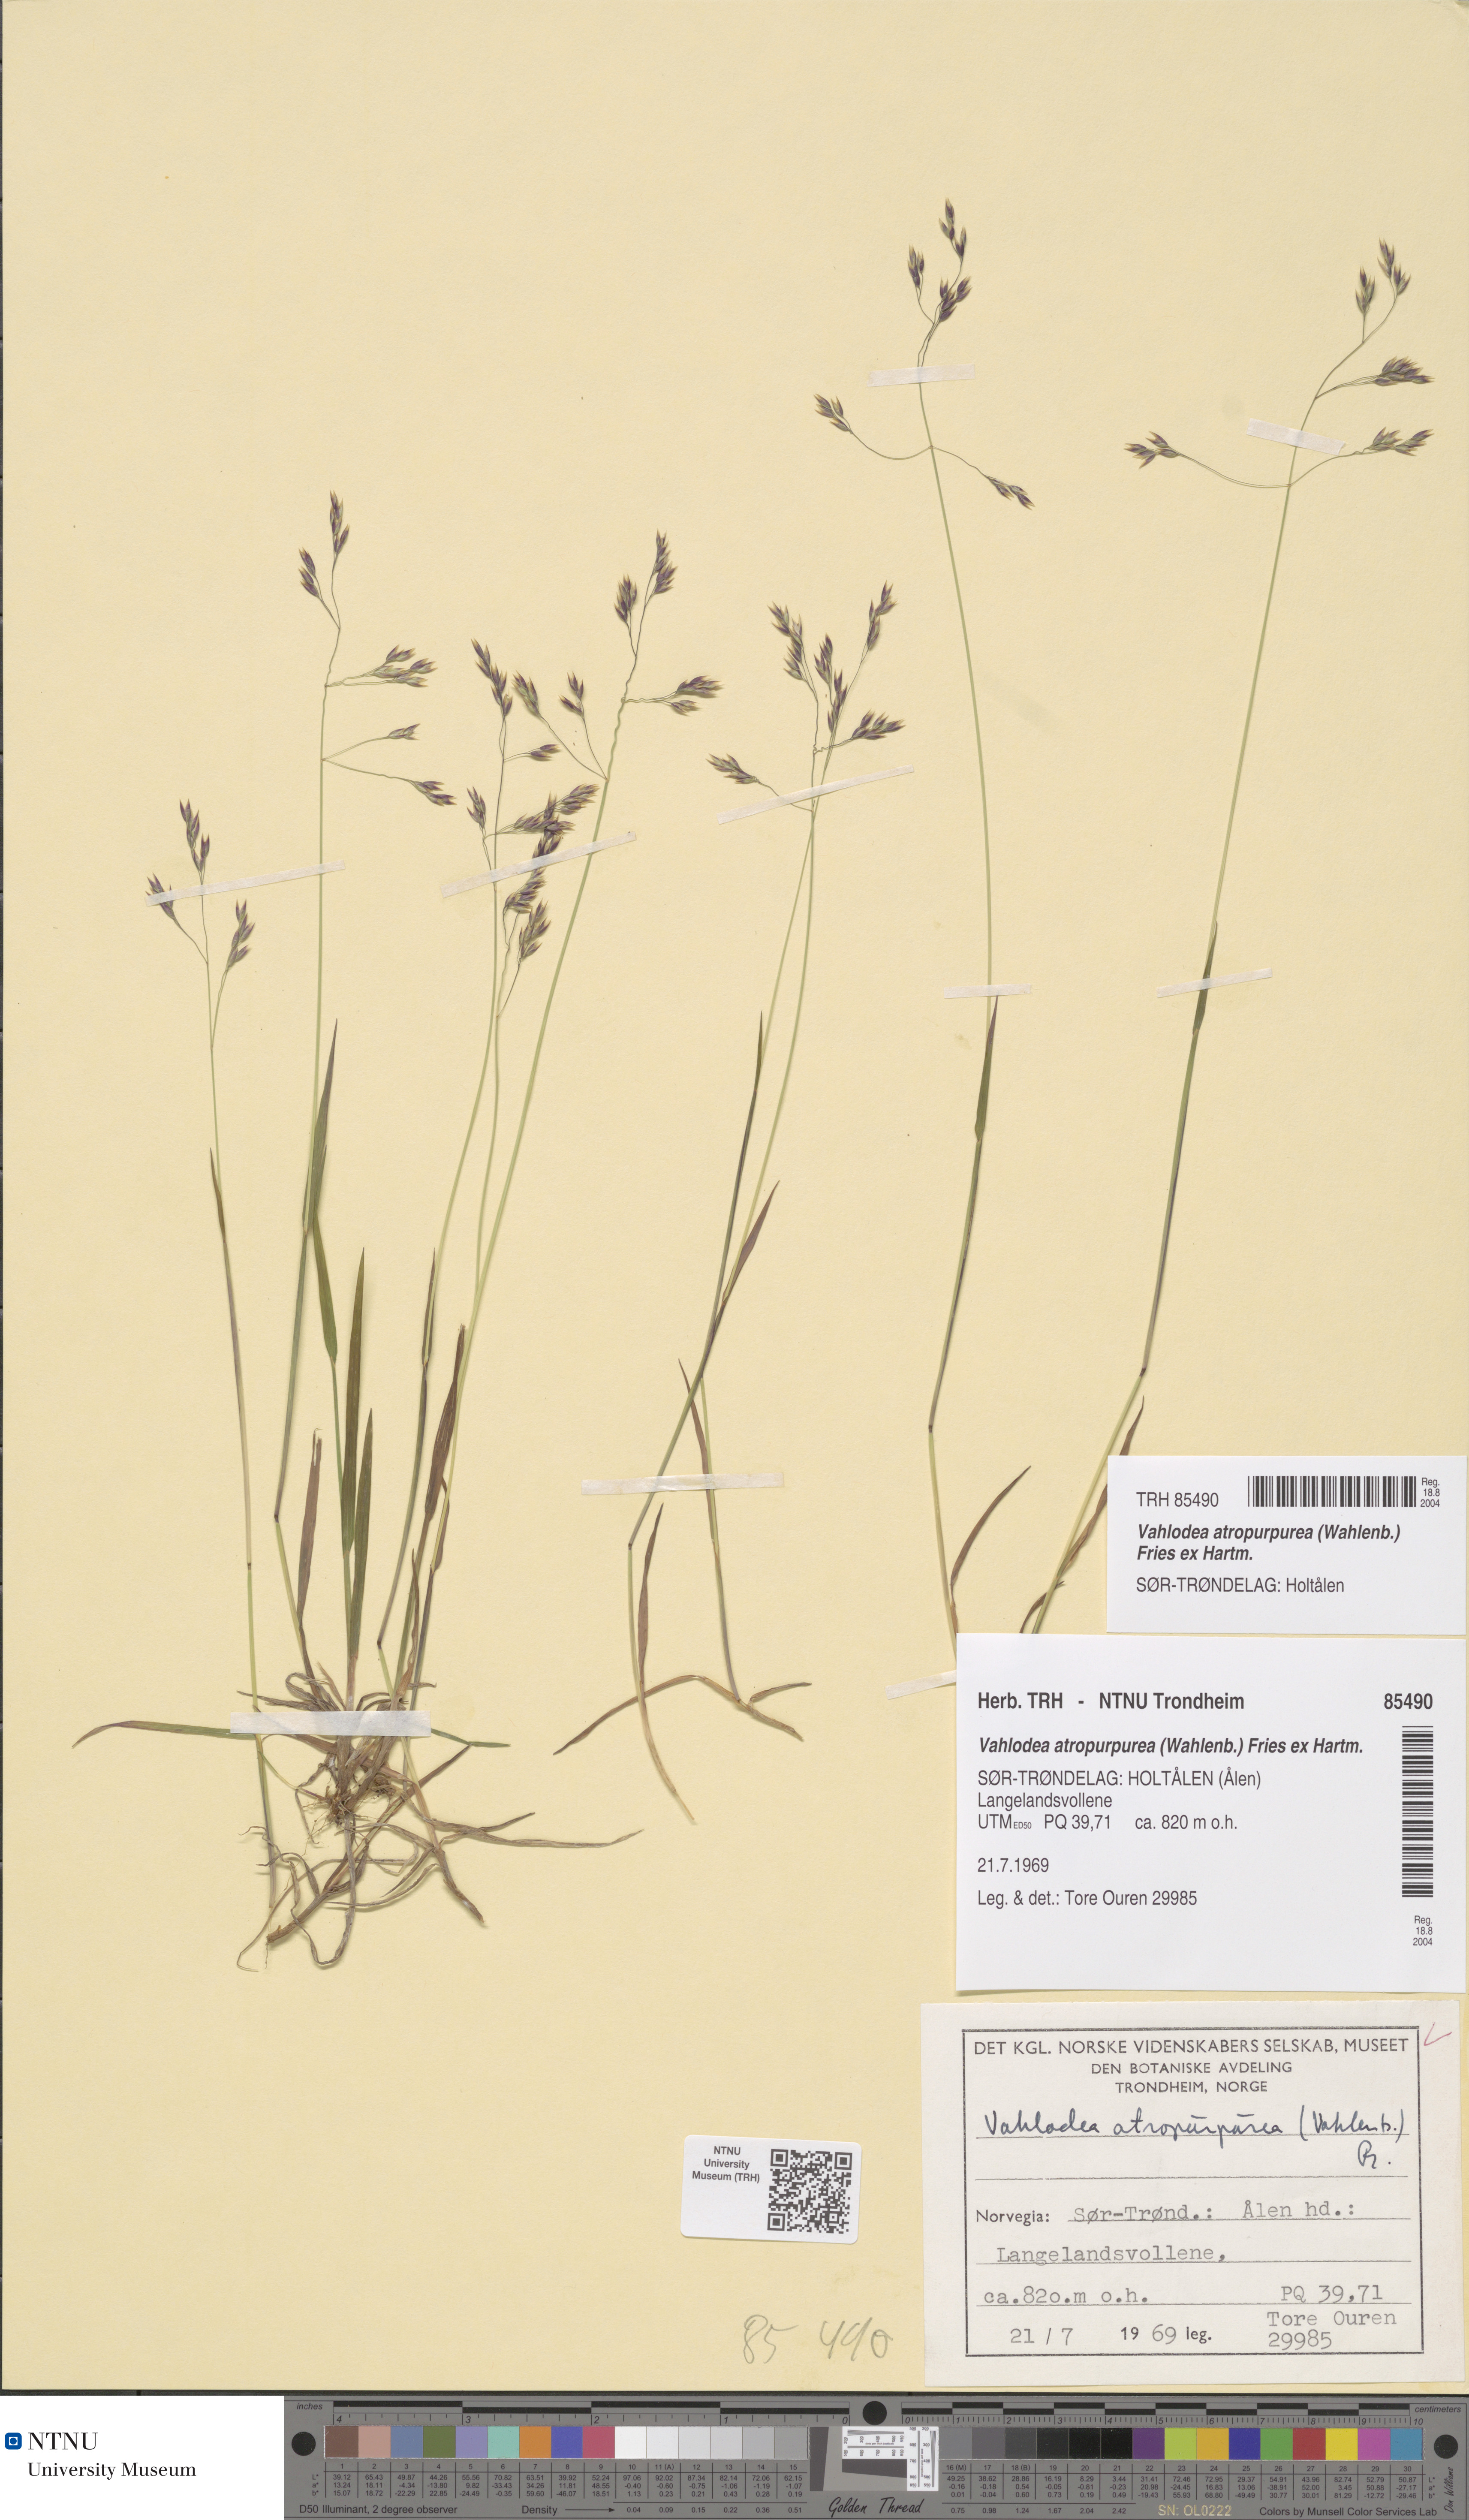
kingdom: Plantae
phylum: Tracheophyta
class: Liliopsida
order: Poales
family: Poaceae
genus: Vahlodea
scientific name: Vahlodea atropurpurea
